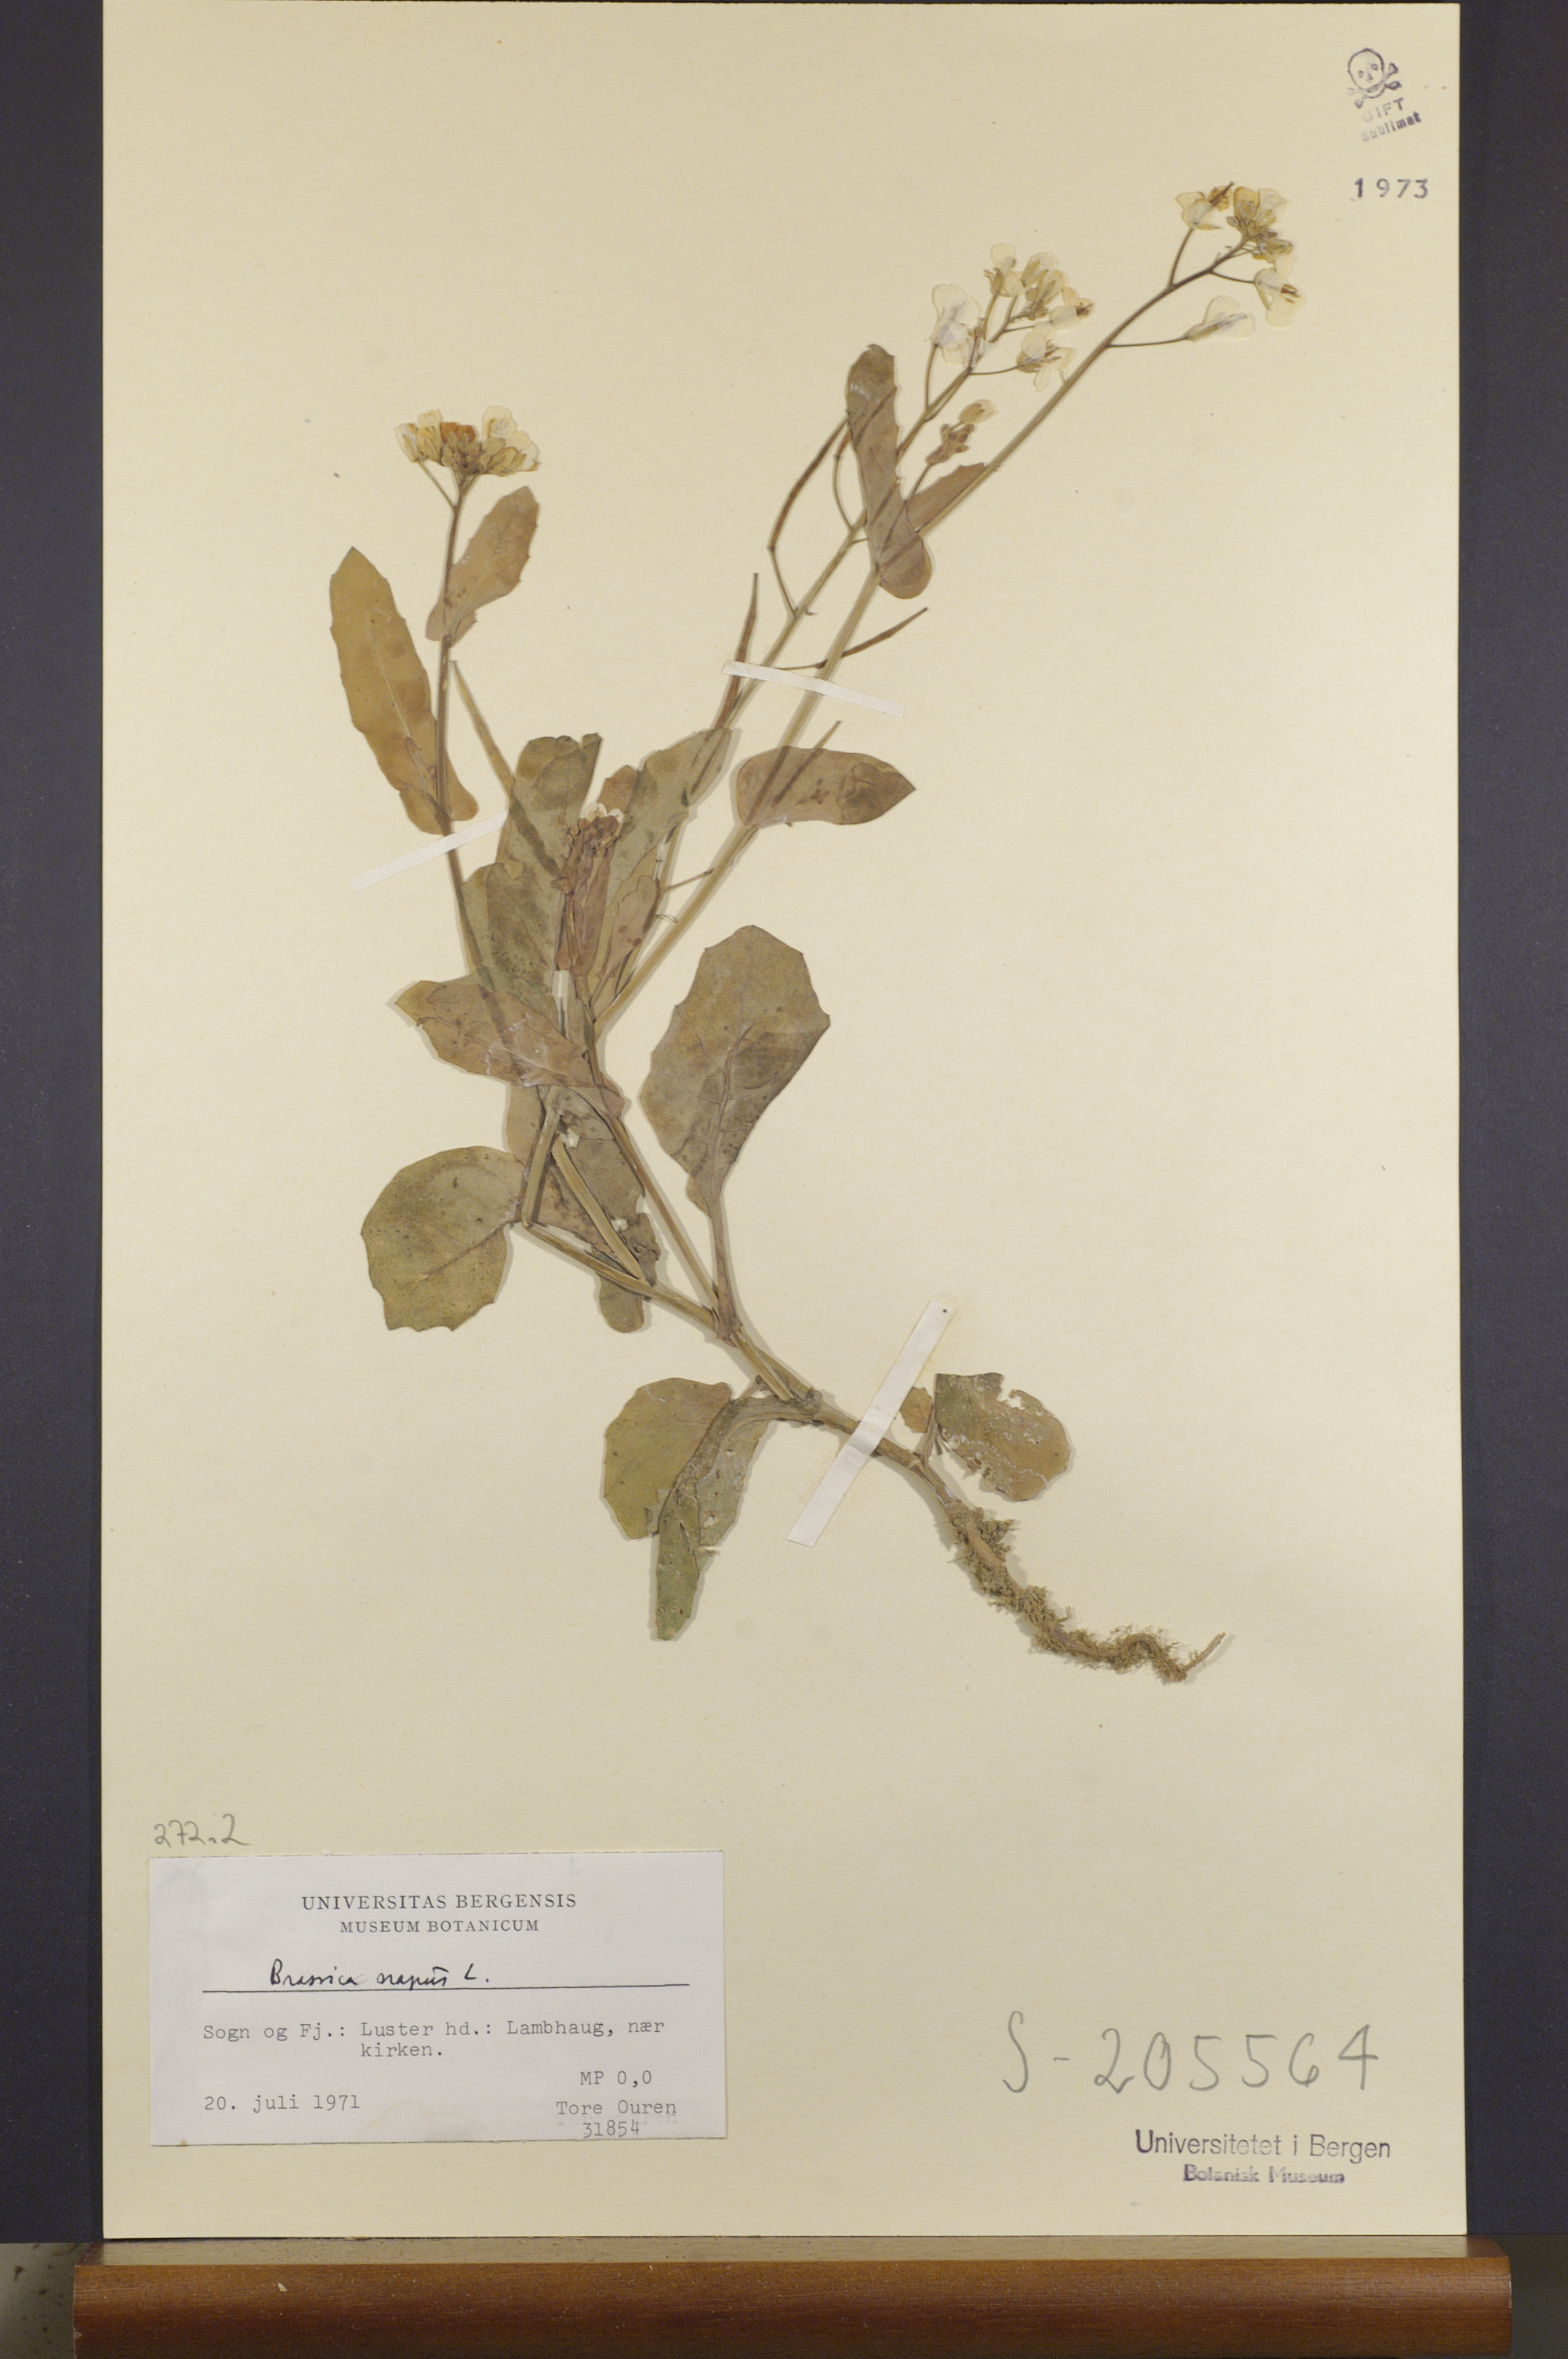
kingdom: Plantae
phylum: Tracheophyta
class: Magnoliopsida
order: Brassicales
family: Brassicaceae
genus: Brassica
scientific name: Brassica napus
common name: Rape
